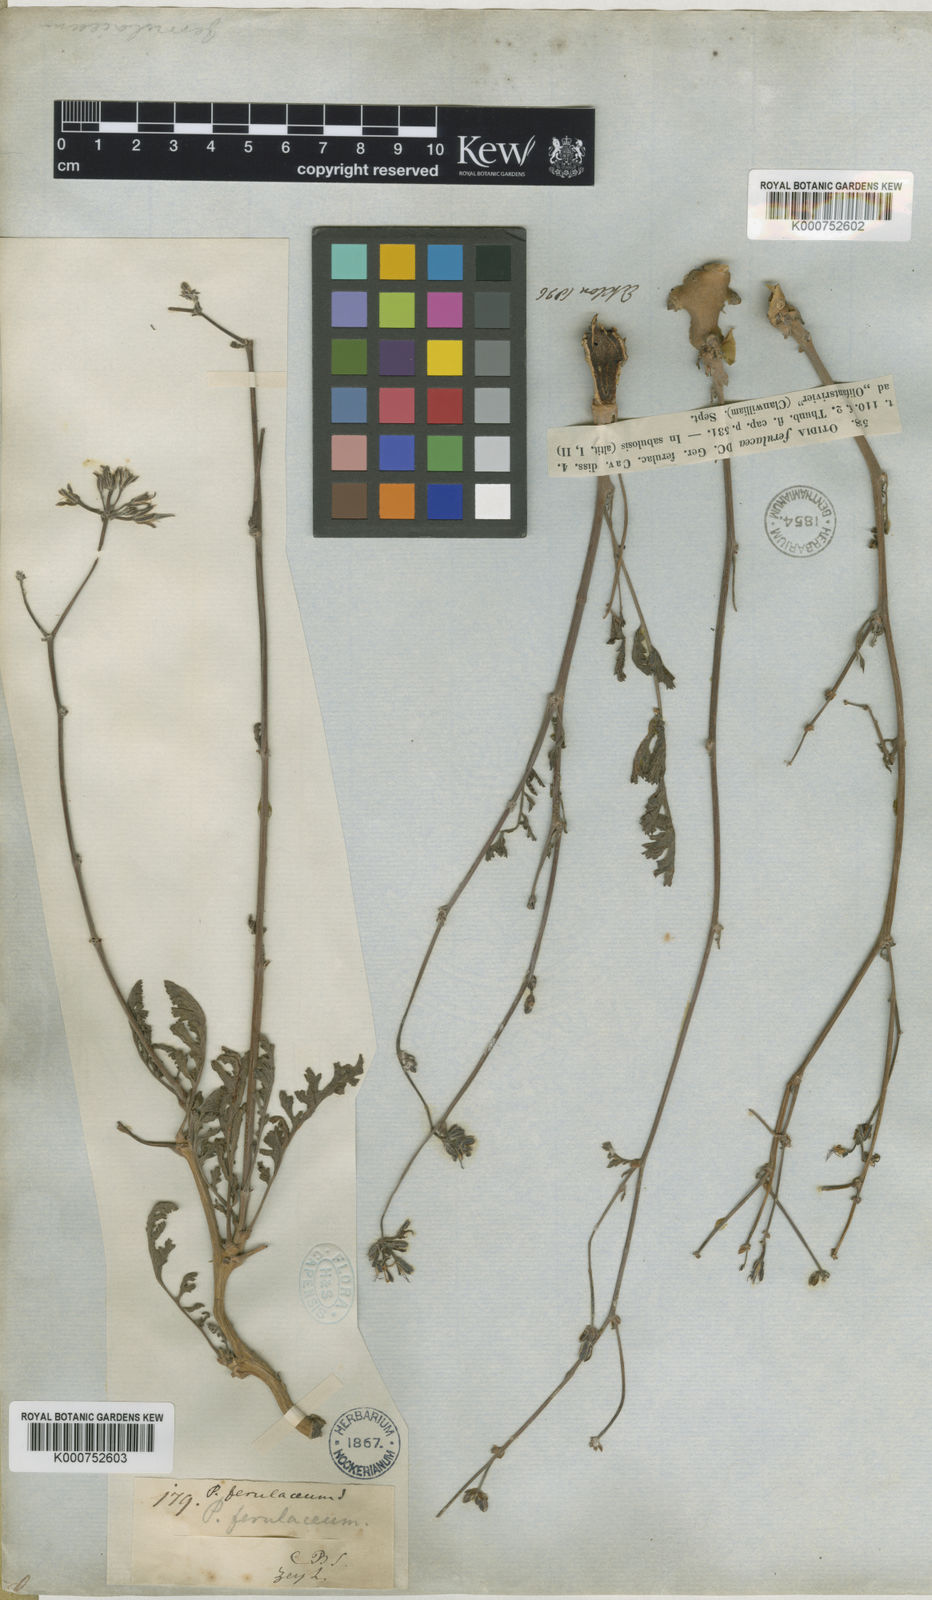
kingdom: Plantae
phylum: Tracheophyta
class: Magnoliopsida
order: Geraniales
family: Geraniaceae
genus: Pelargonium
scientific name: Pelargonium
